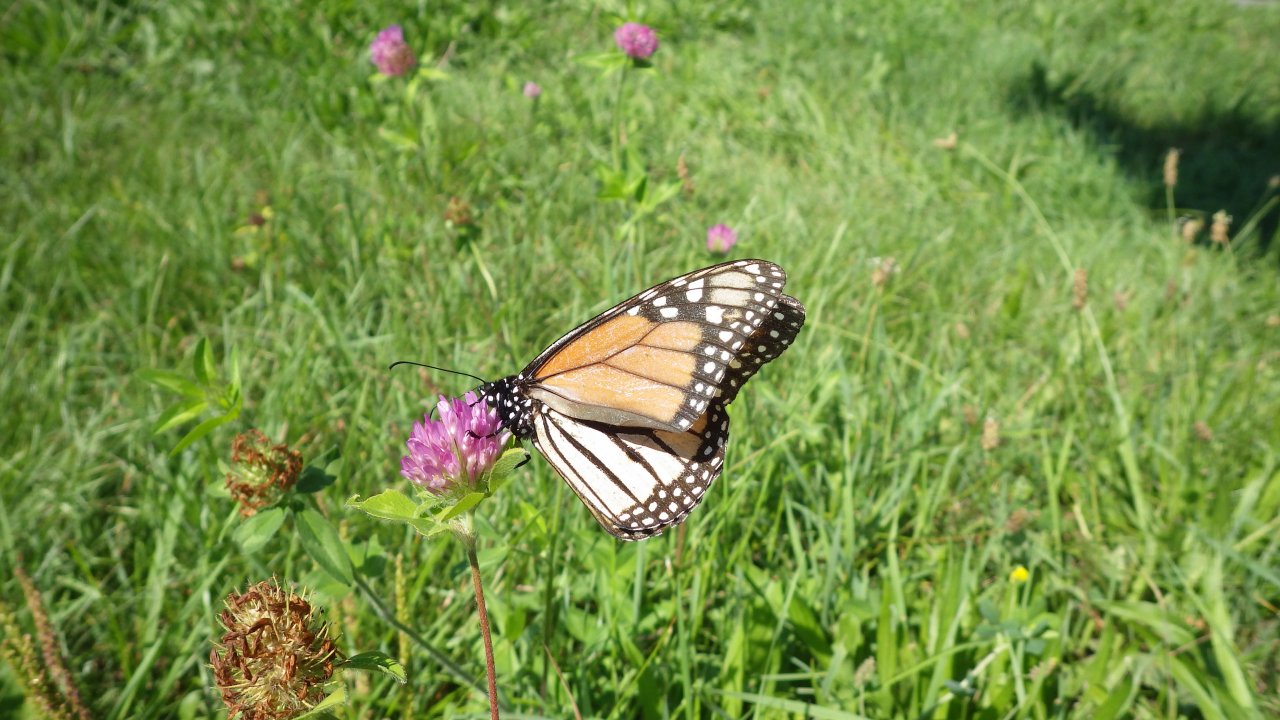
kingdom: Animalia
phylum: Arthropoda
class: Insecta
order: Lepidoptera
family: Nymphalidae
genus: Danaus
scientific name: Danaus plexippus
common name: Monarch
